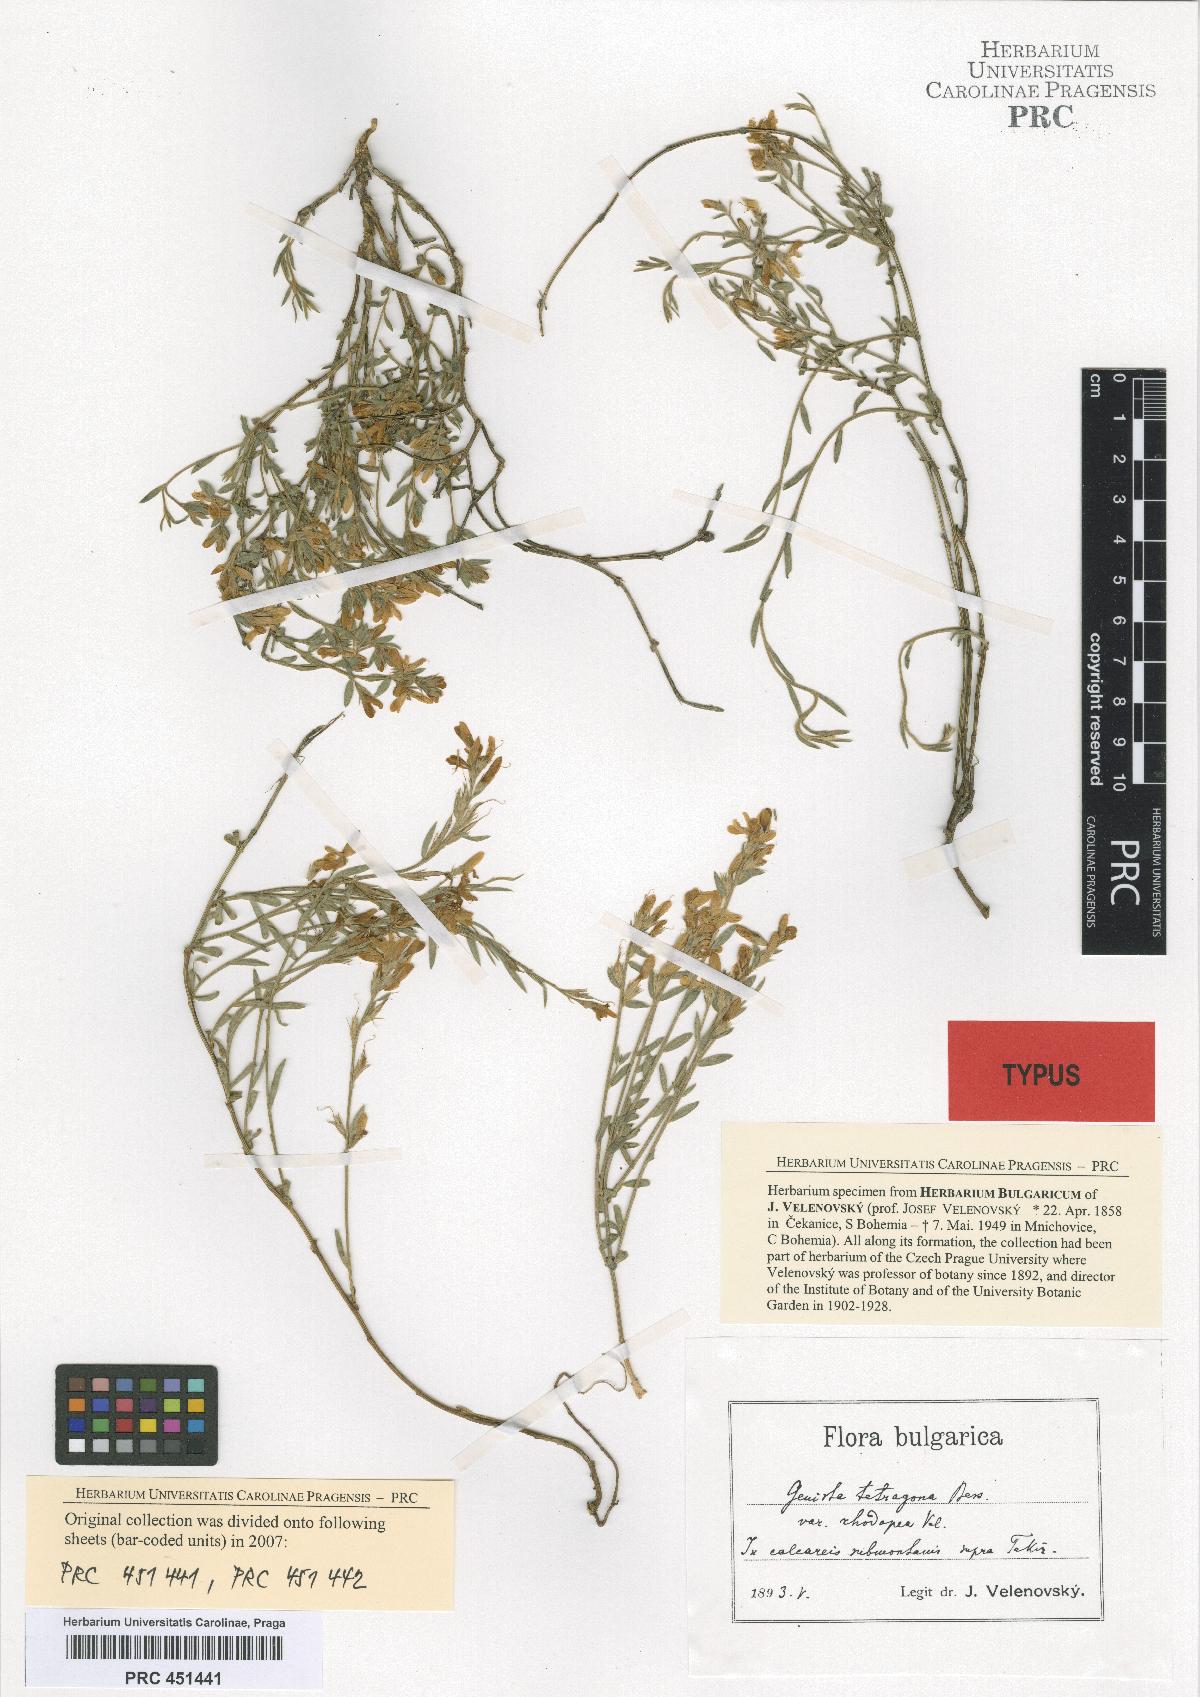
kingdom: Plantae
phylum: Tracheophyta
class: Magnoliopsida
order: Fabales
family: Fabaceae
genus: Genista
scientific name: Genista tetragona
